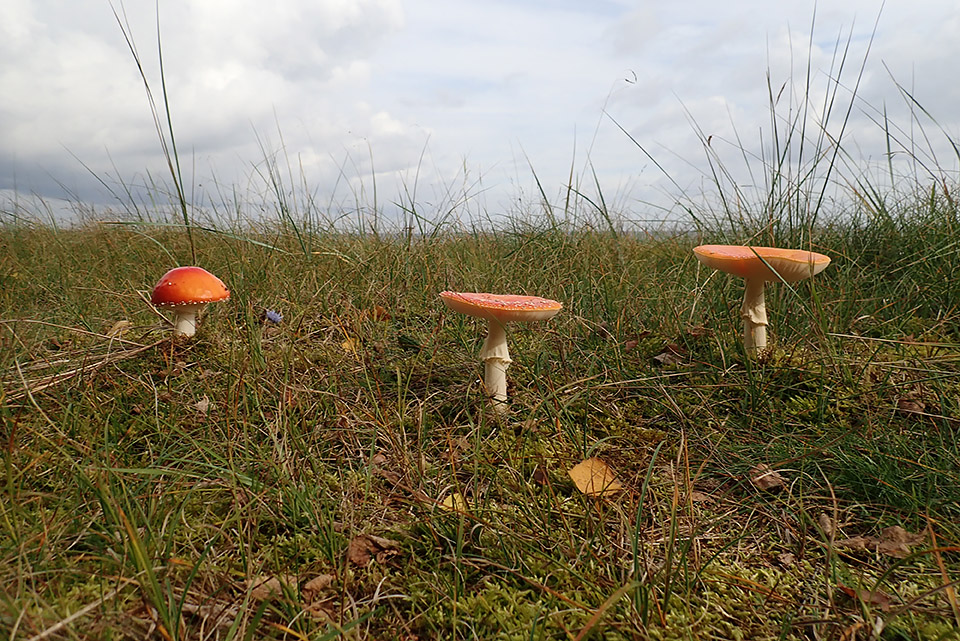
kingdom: Fungi
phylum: Basidiomycota
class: Agaricomycetes
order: Agaricales
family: Amanitaceae
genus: Amanita
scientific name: Amanita muscaria
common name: rød fluesvamp
